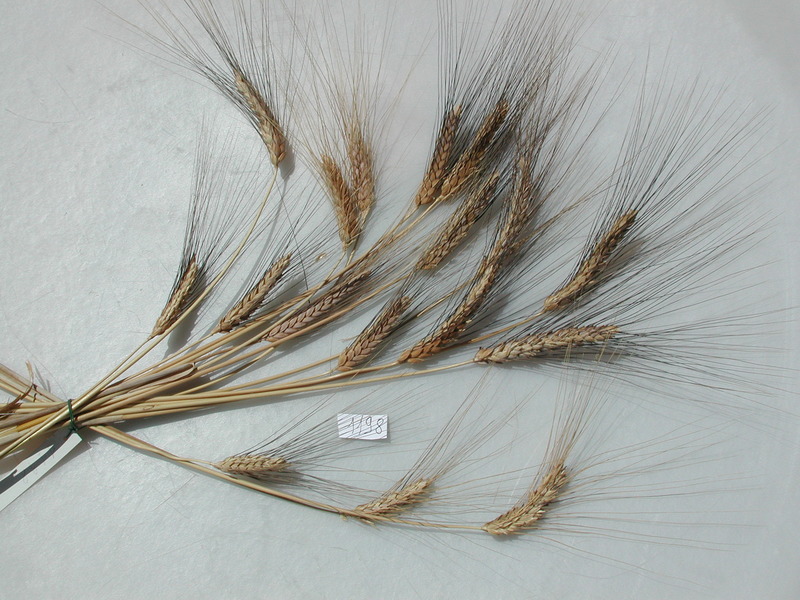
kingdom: Plantae
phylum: Tracheophyta
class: Liliopsida
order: Poales
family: Poaceae
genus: Triticum
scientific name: Triticum turgidum
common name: Wheat
